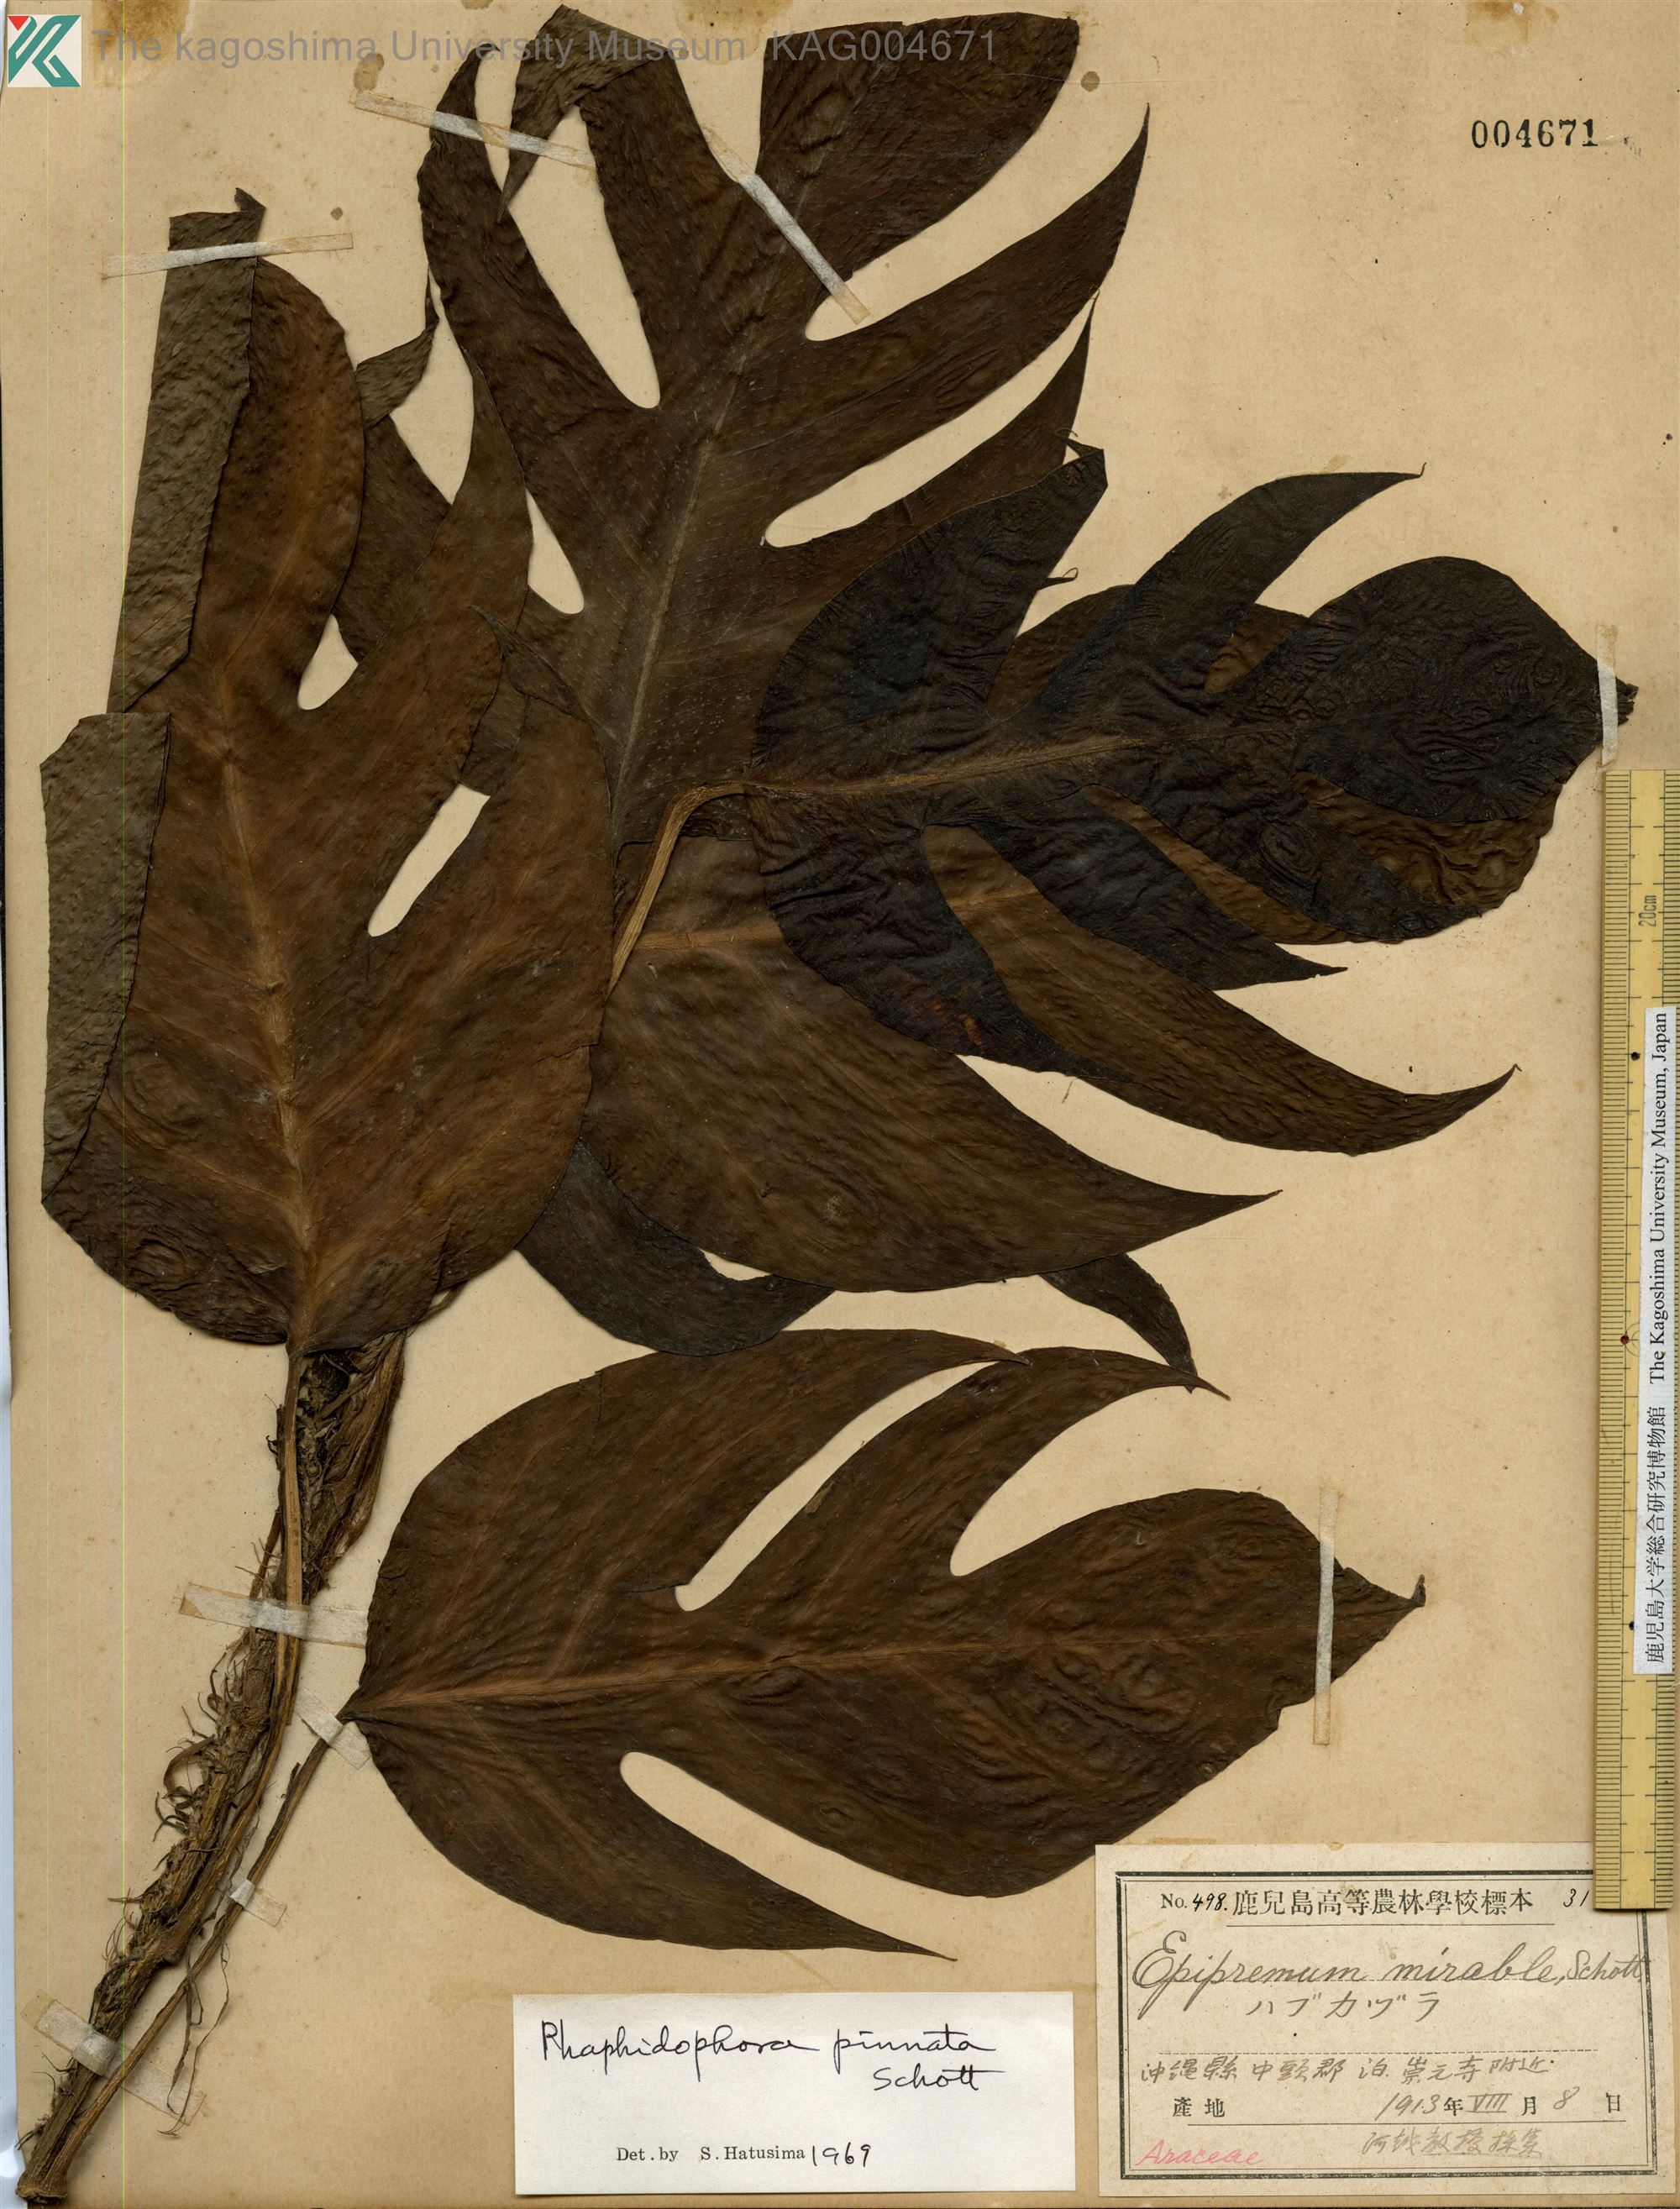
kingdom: Plantae
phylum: Tracheophyta
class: Liliopsida
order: Alismatales
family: Araceae
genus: Epipremnum
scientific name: Epipremnum pinnatum
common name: Centipede tongavine
